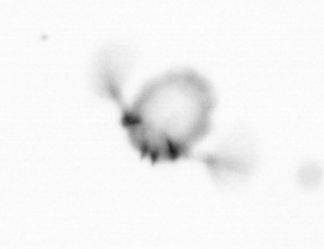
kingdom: Animalia
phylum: Arthropoda
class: Copepoda
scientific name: Copepoda
